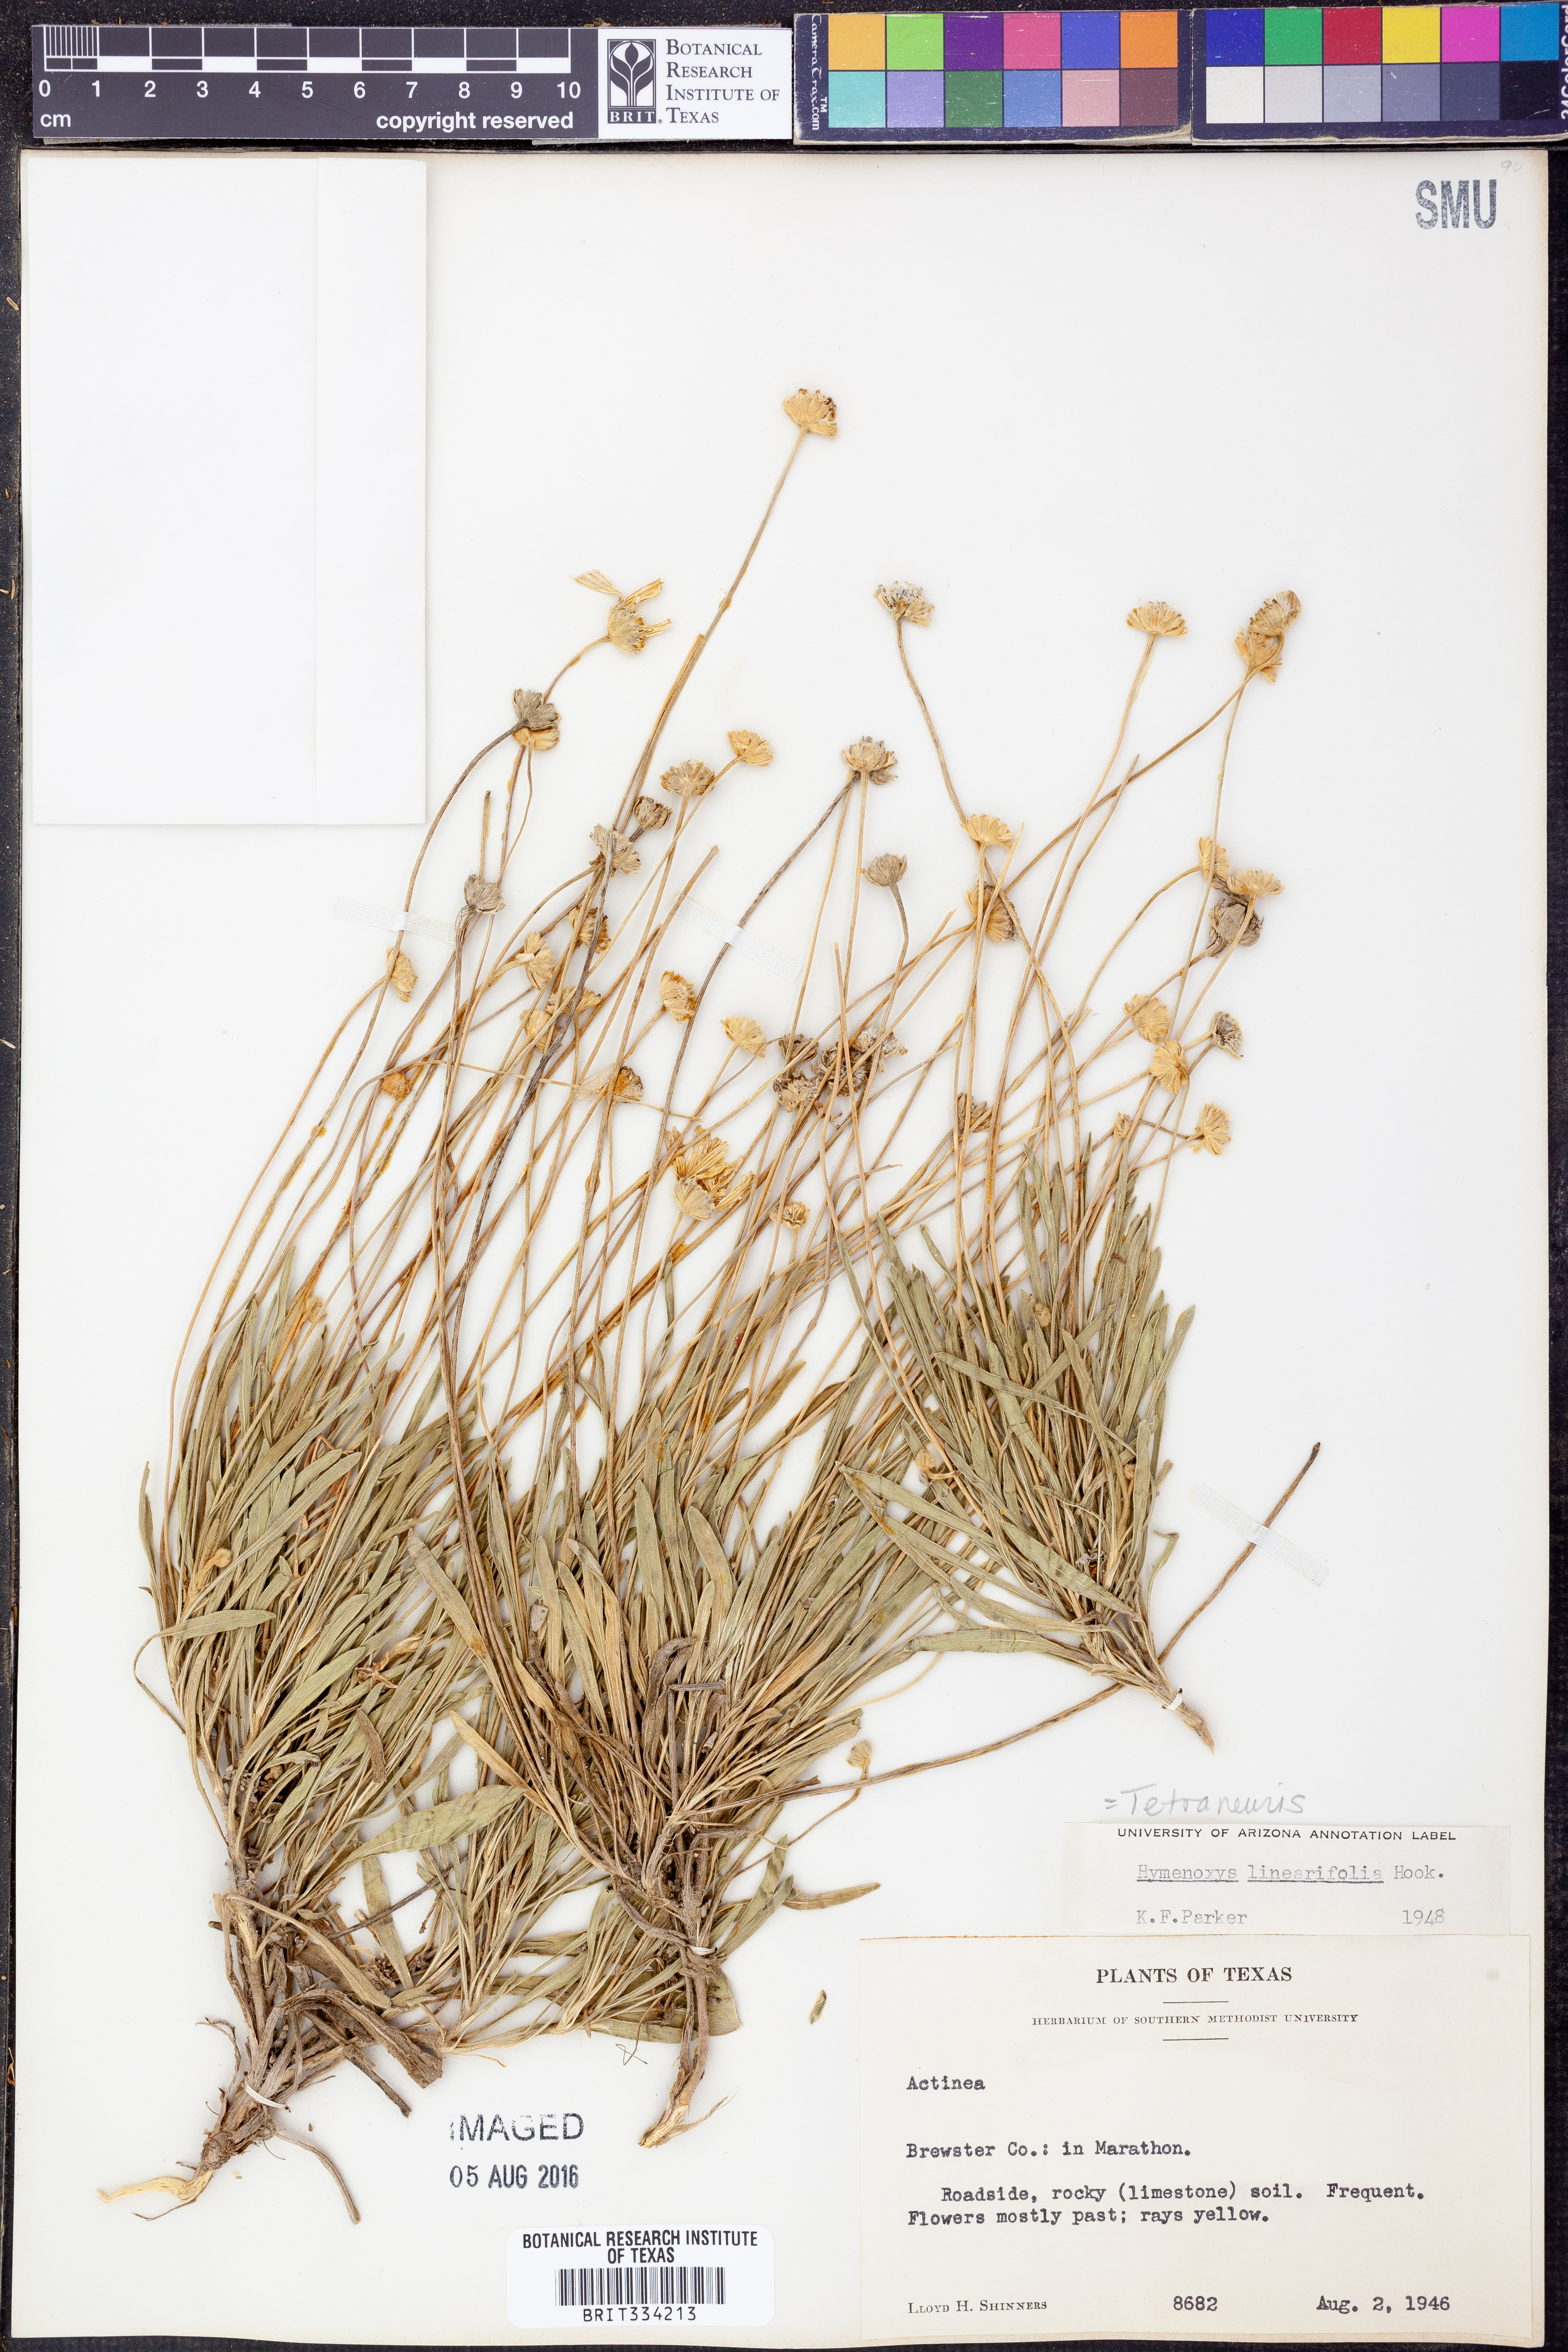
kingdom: Plantae
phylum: Tracheophyta
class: Magnoliopsida
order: Asterales
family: Asteraceae
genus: Tetraneuris
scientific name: Tetraneuris linearifolia
